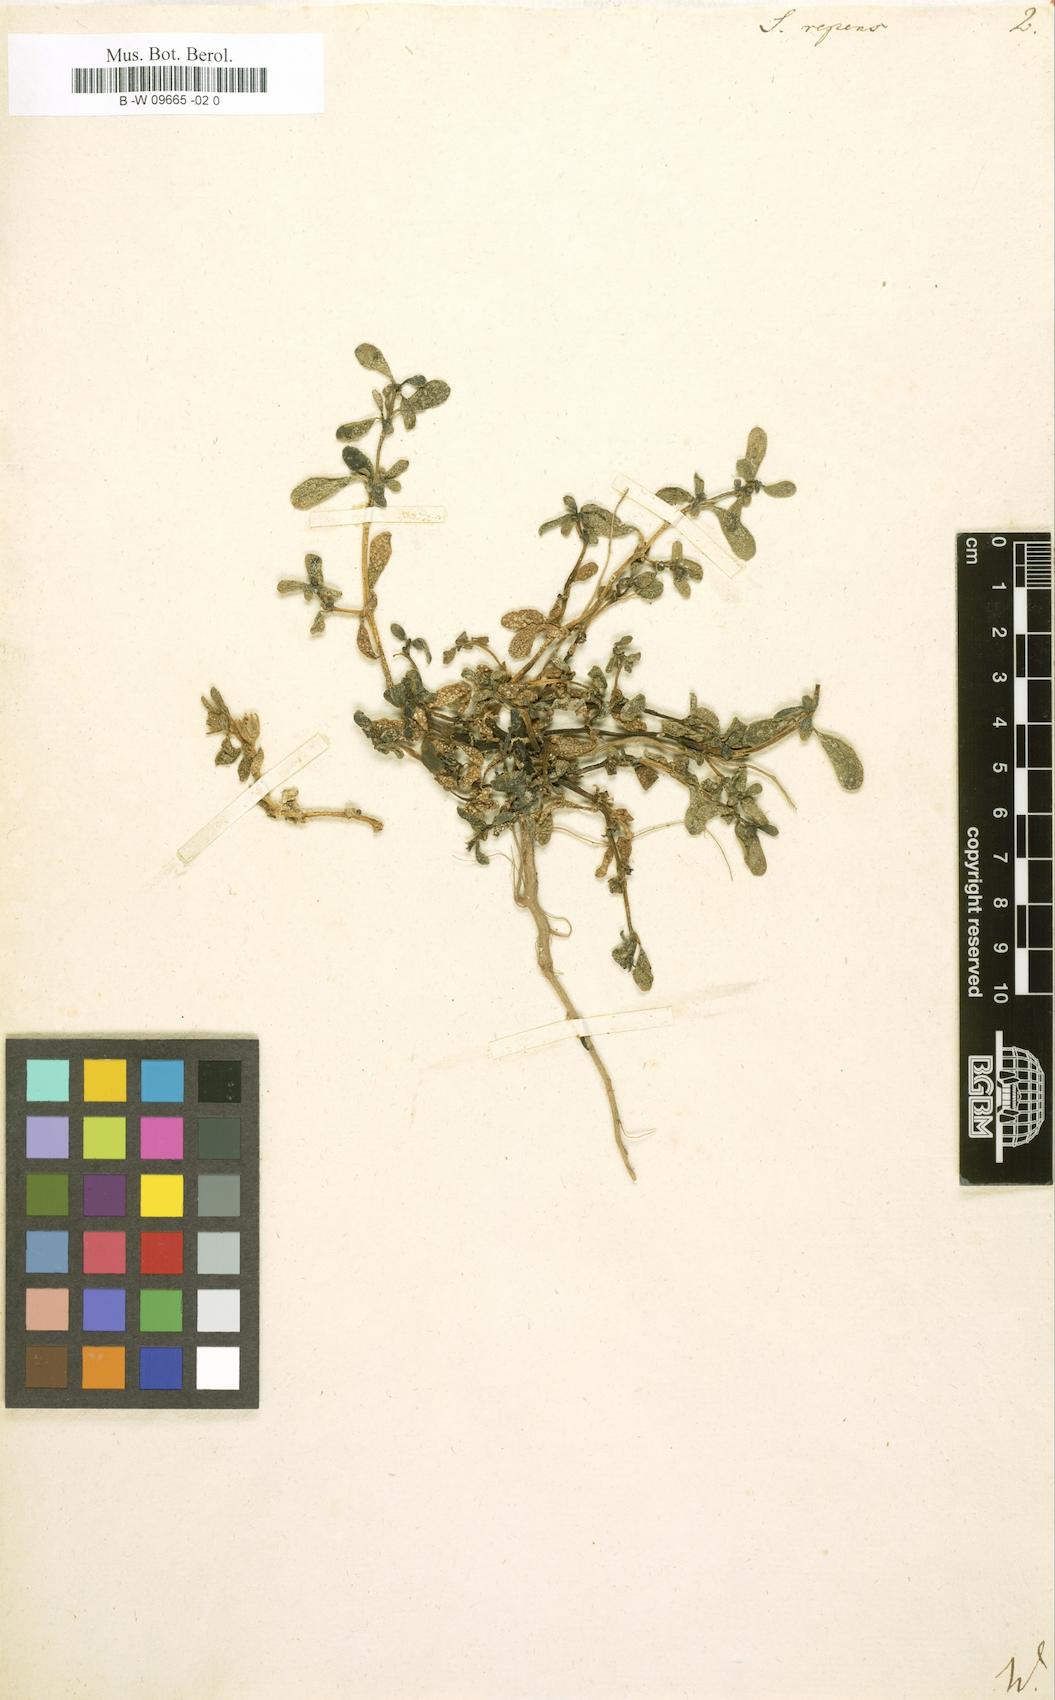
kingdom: Plantae
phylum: Tracheophyta
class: Magnoliopsida
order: Caryophyllales
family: Aizoaceae
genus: Sesuvium
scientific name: Sesuvium portulacastrum
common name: Sea-purslane
